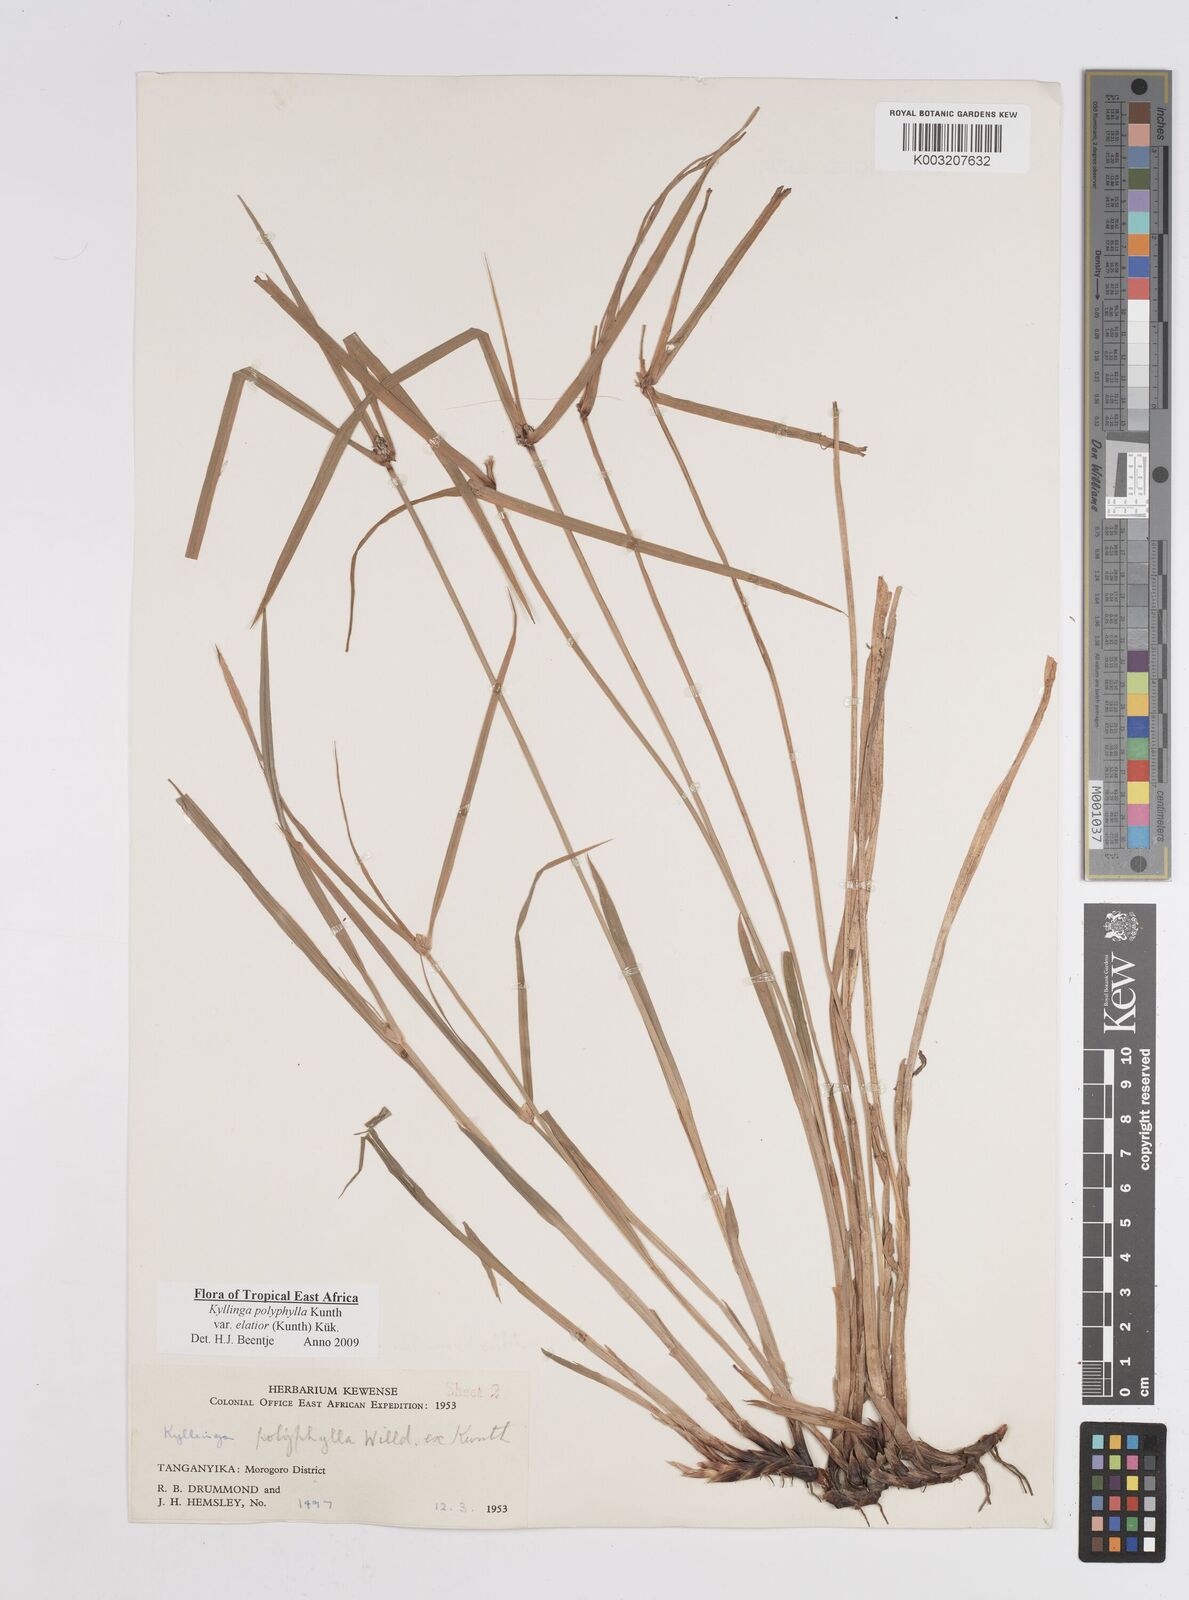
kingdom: Plantae
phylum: Tracheophyta
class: Liliopsida
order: Poales
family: Cyperaceae
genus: Cyperus
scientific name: Cyperus
